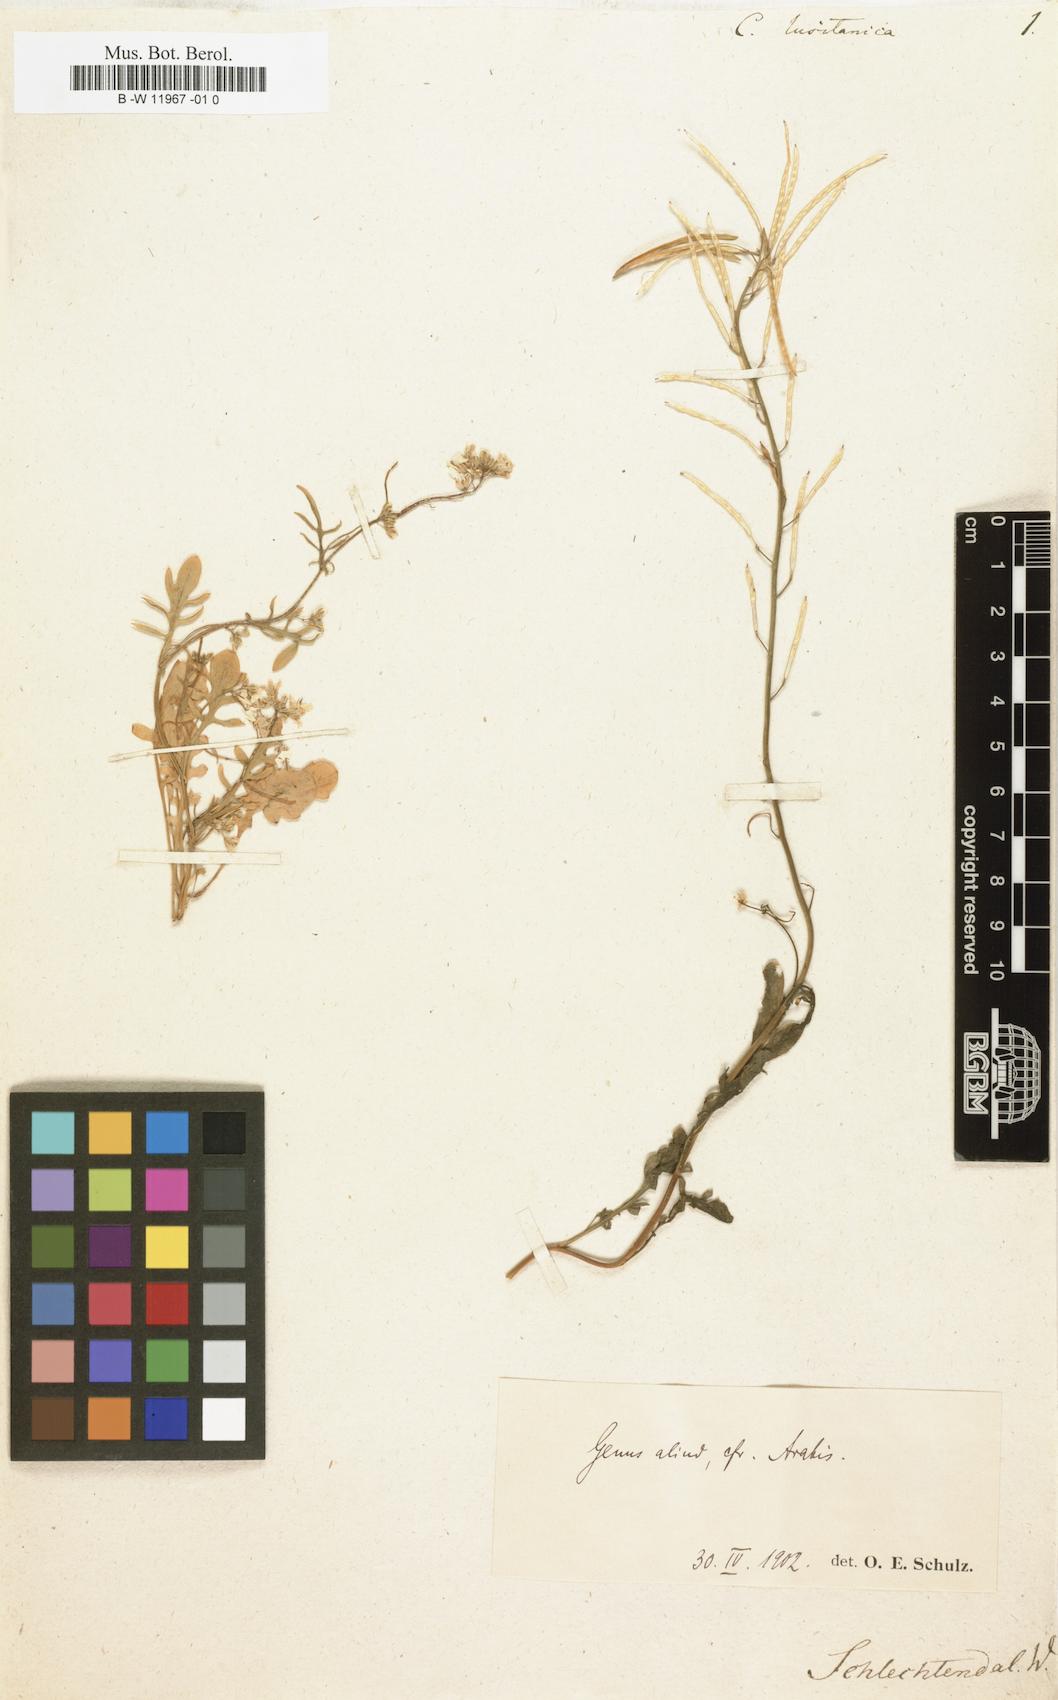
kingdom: Plantae
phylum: Tracheophyta
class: Magnoliopsida
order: Brassicales
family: Brassicaceae
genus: Cardamine
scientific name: Cardamine
